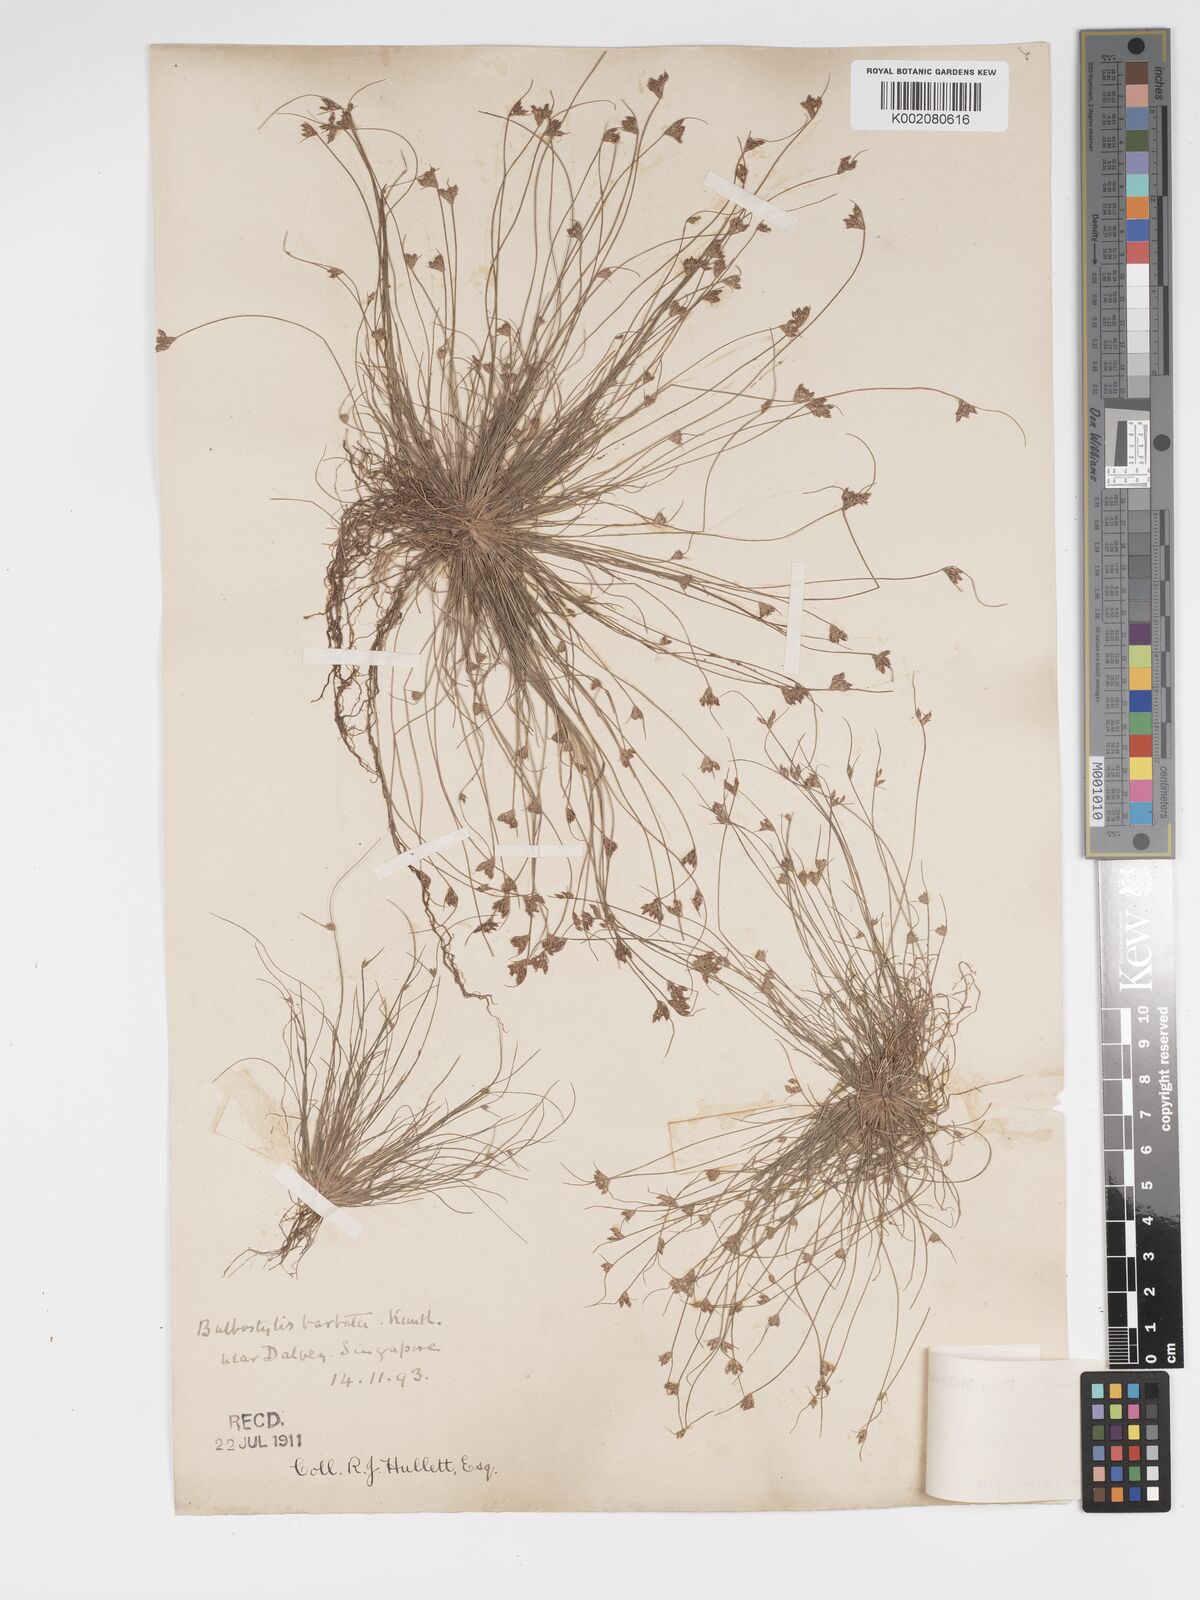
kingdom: Plantae
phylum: Tracheophyta
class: Liliopsida
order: Poales
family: Cyperaceae
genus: Bulbostylis
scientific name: Bulbostylis thouarsii
